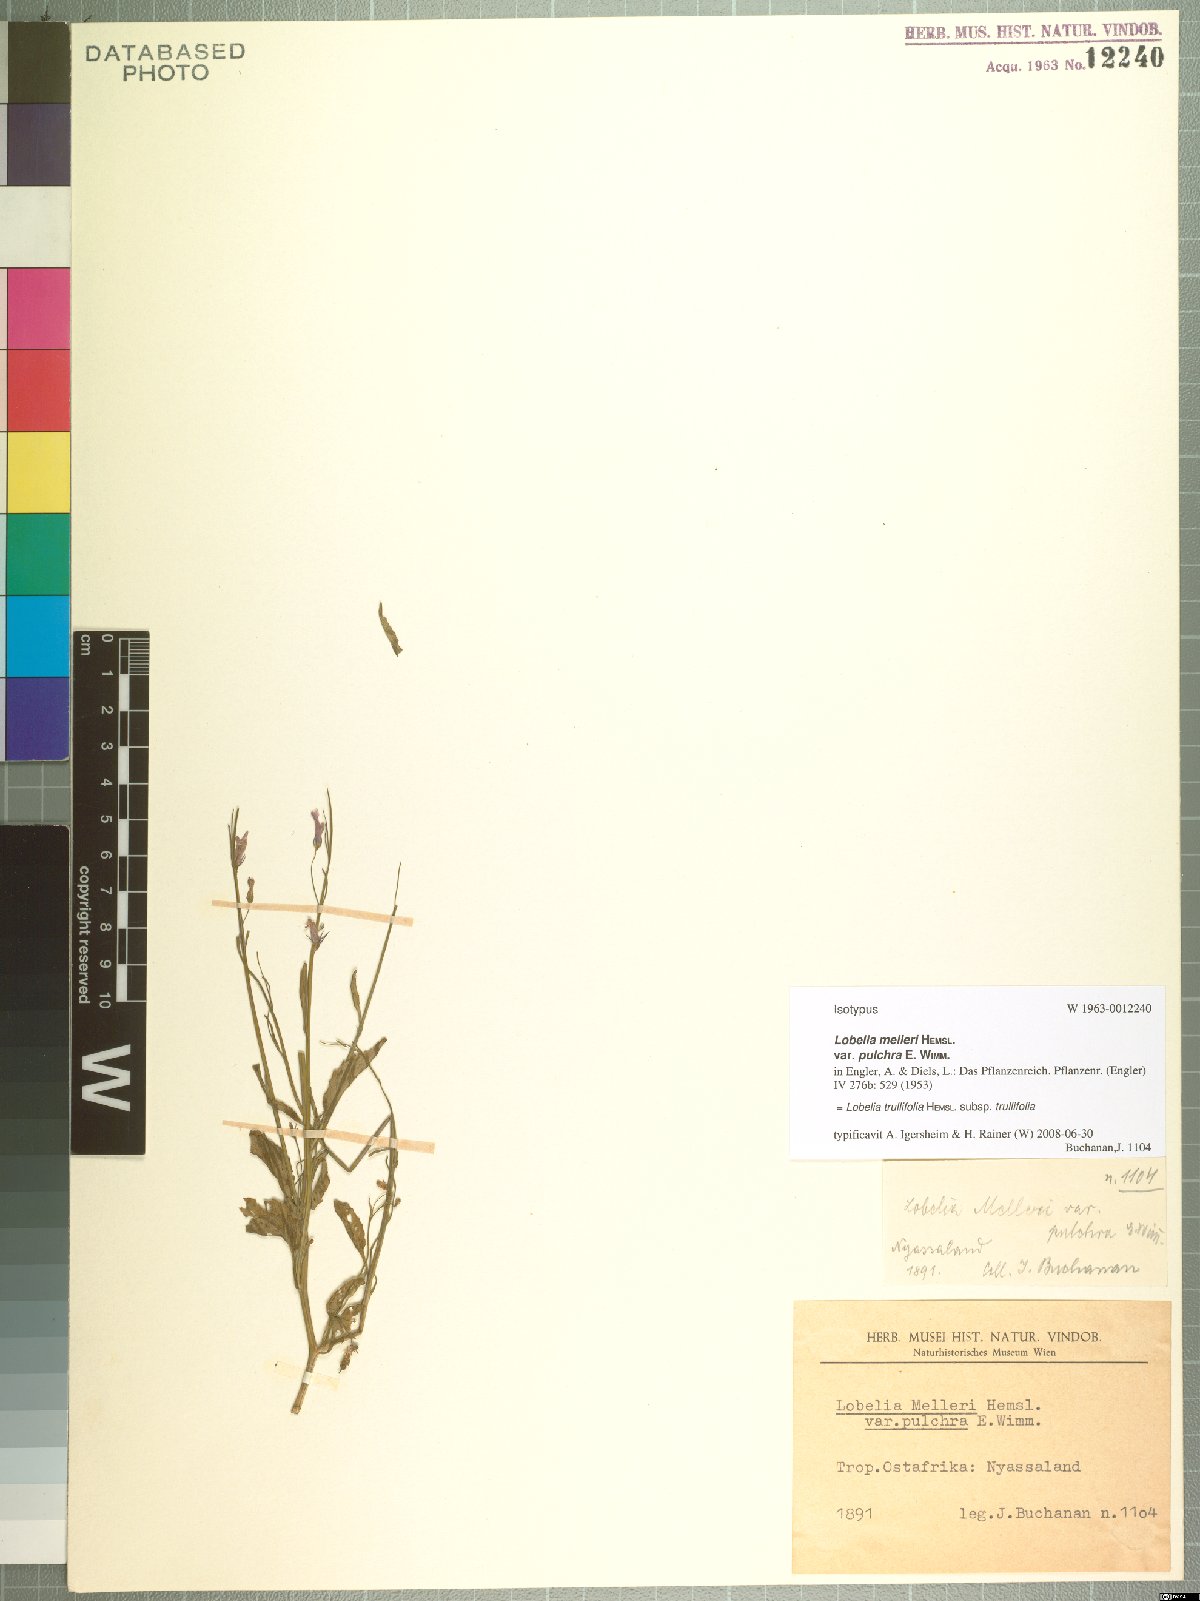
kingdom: Plantae
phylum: Tracheophyta
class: Magnoliopsida
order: Asterales
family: Campanulaceae
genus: Lobelia
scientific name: Lobelia trullifolia
